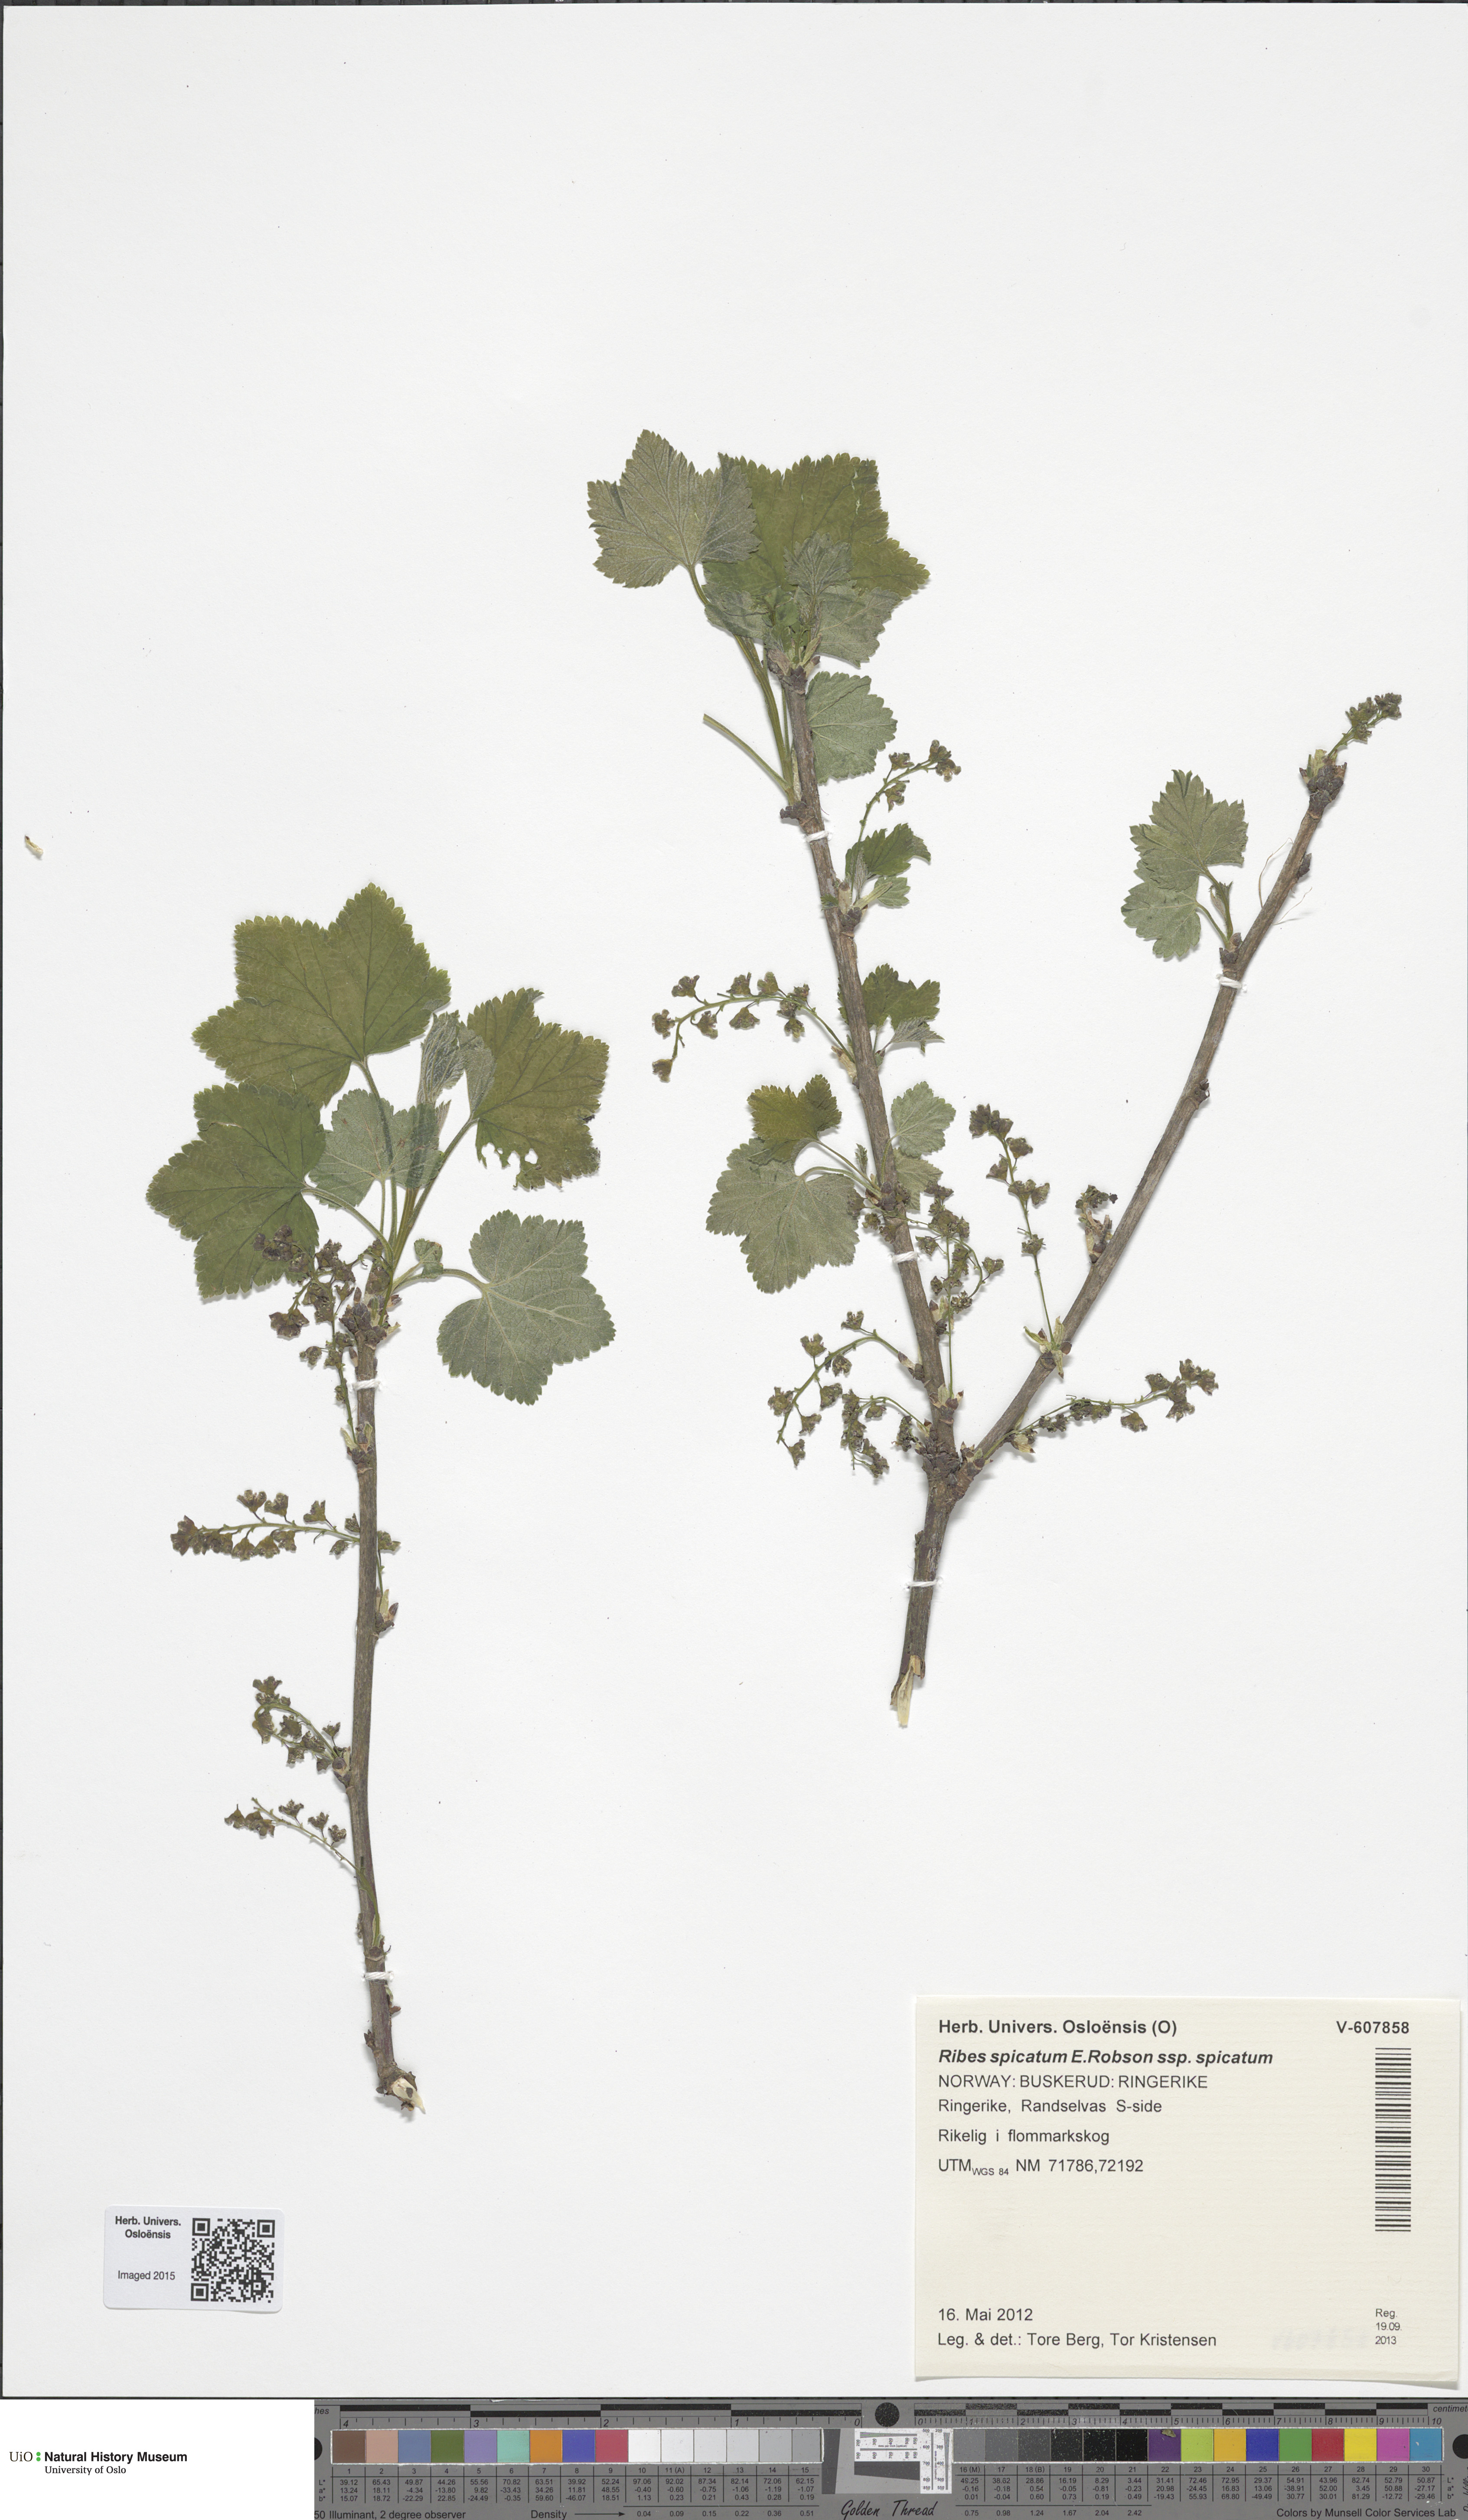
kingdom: Plantae
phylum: Tracheophyta
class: Magnoliopsida
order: Saxifragales
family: Grossulariaceae
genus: Ribes
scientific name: Ribes spicatum
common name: Downy currant
